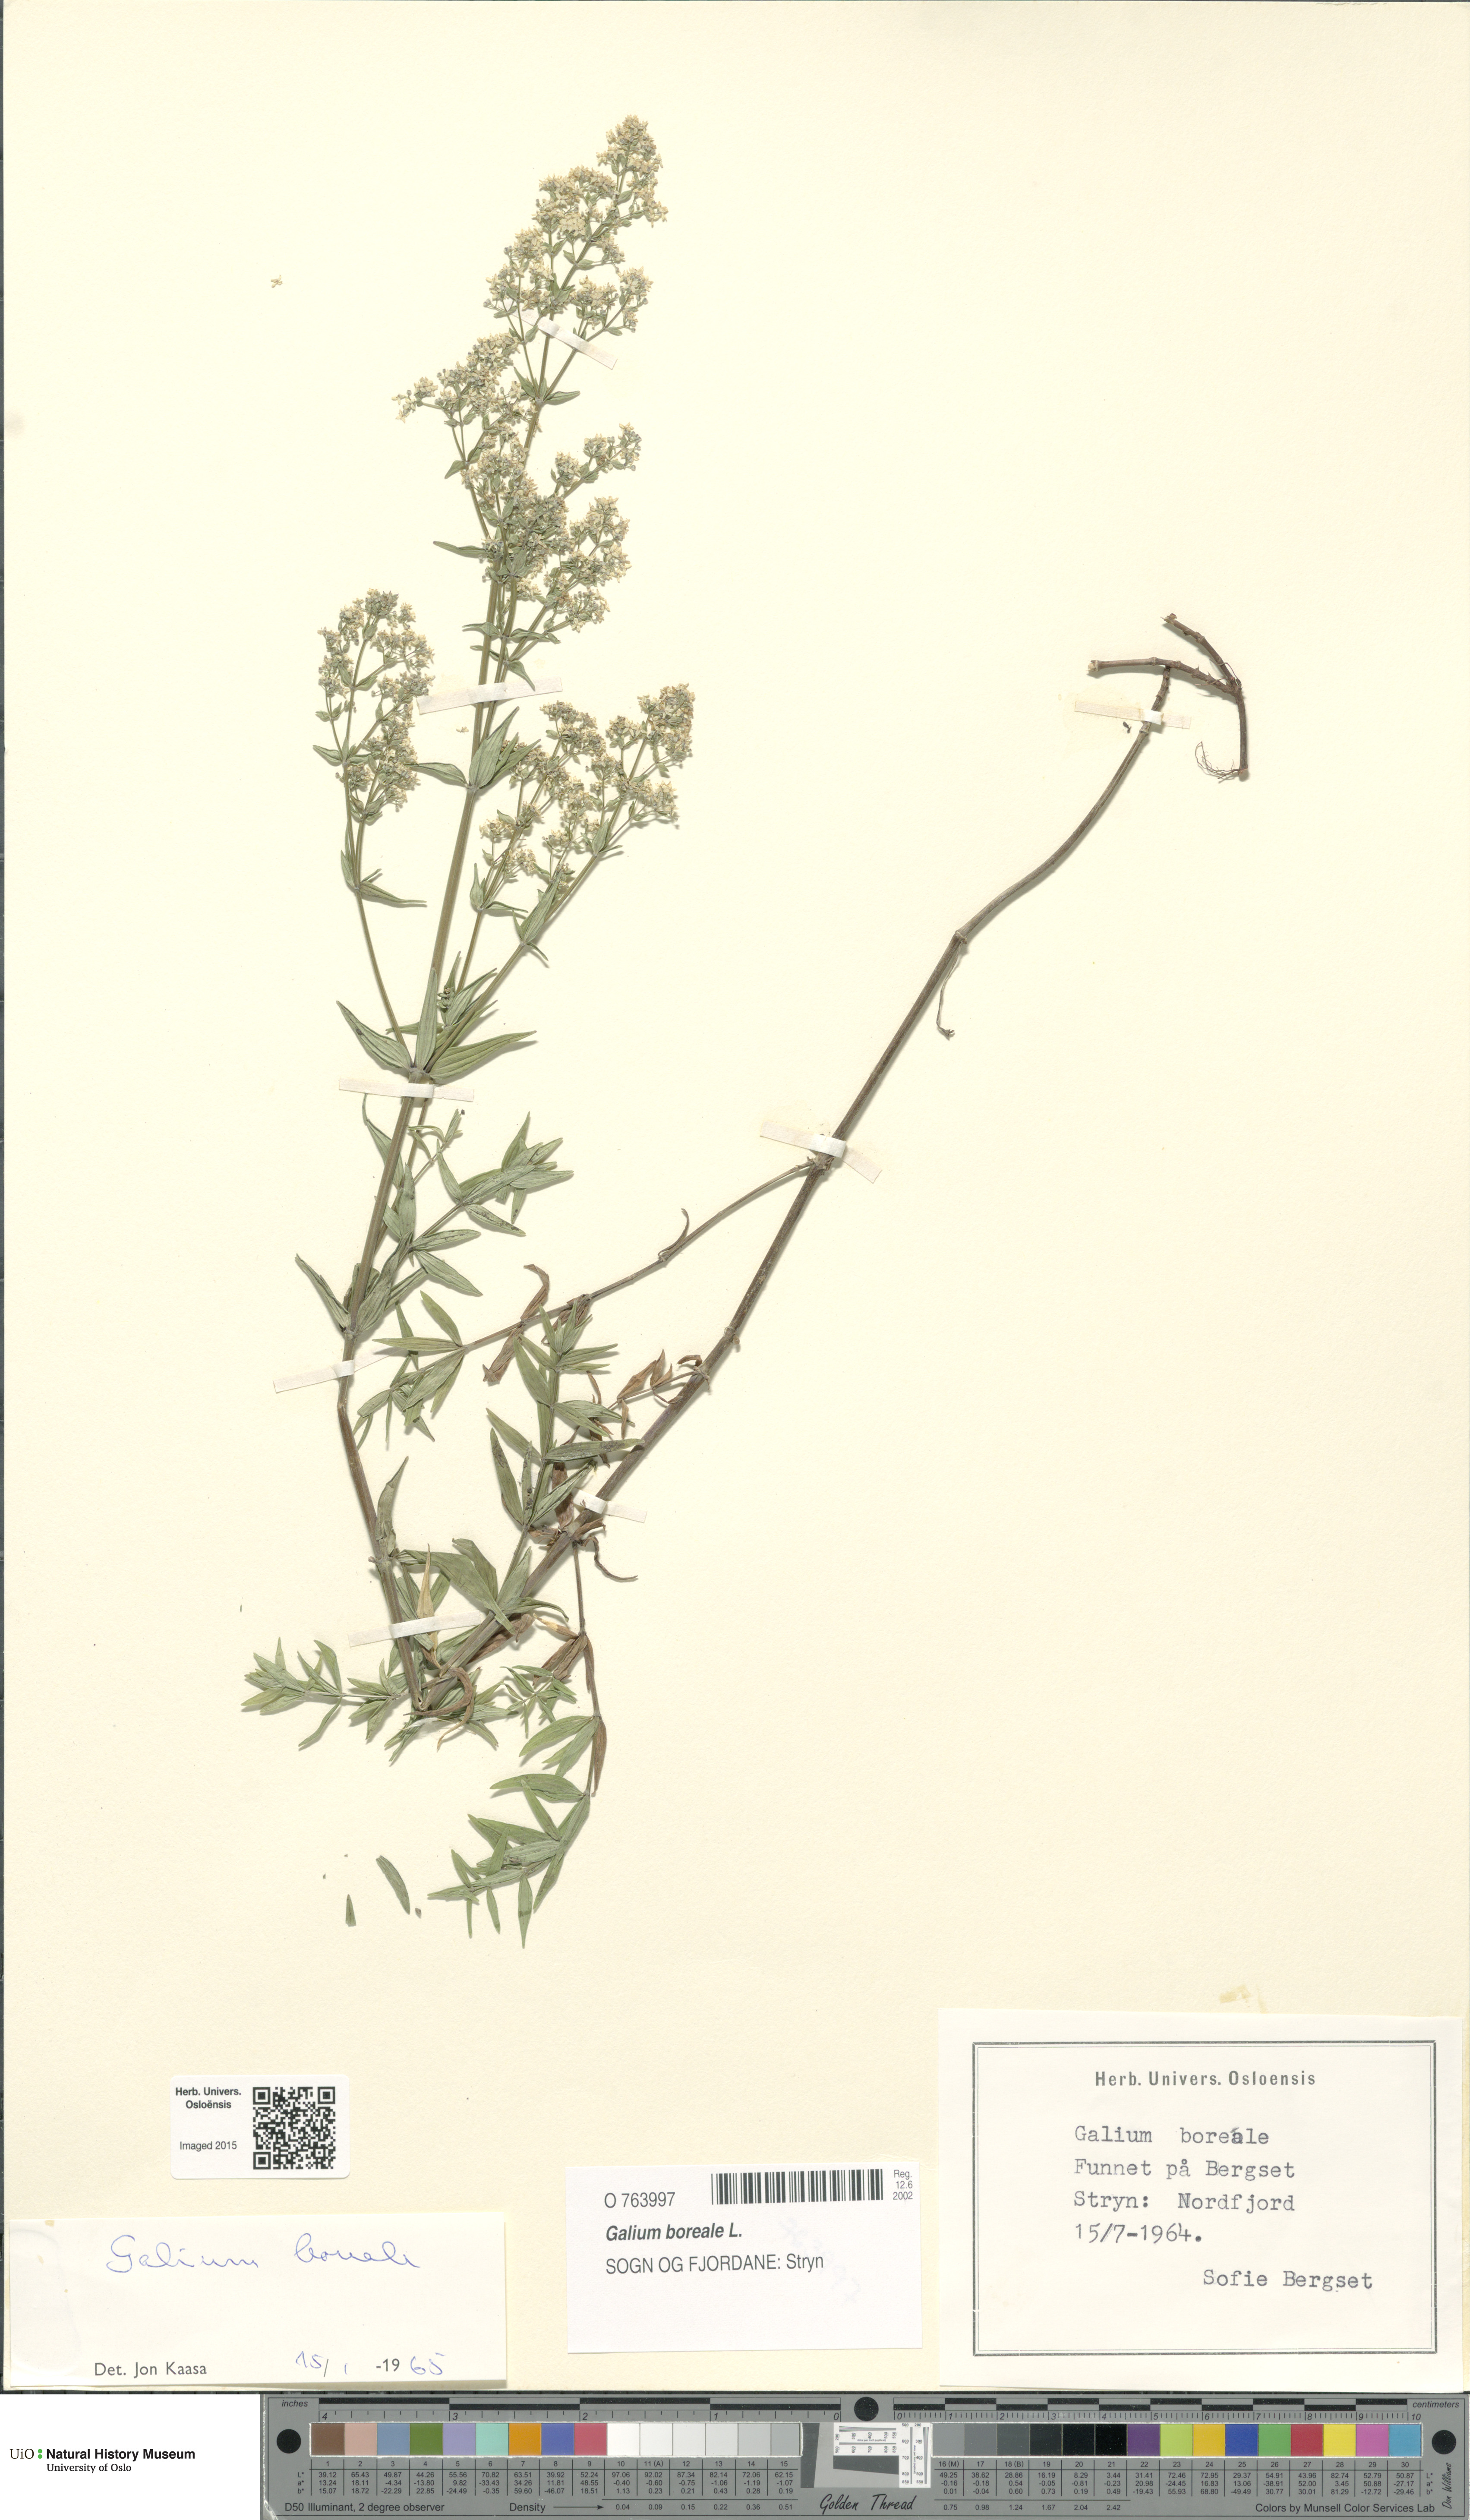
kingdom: Plantae
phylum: Tracheophyta
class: Magnoliopsida
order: Gentianales
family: Rubiaceae
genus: Galium
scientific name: Galium boreale
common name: Northern bedstraw
